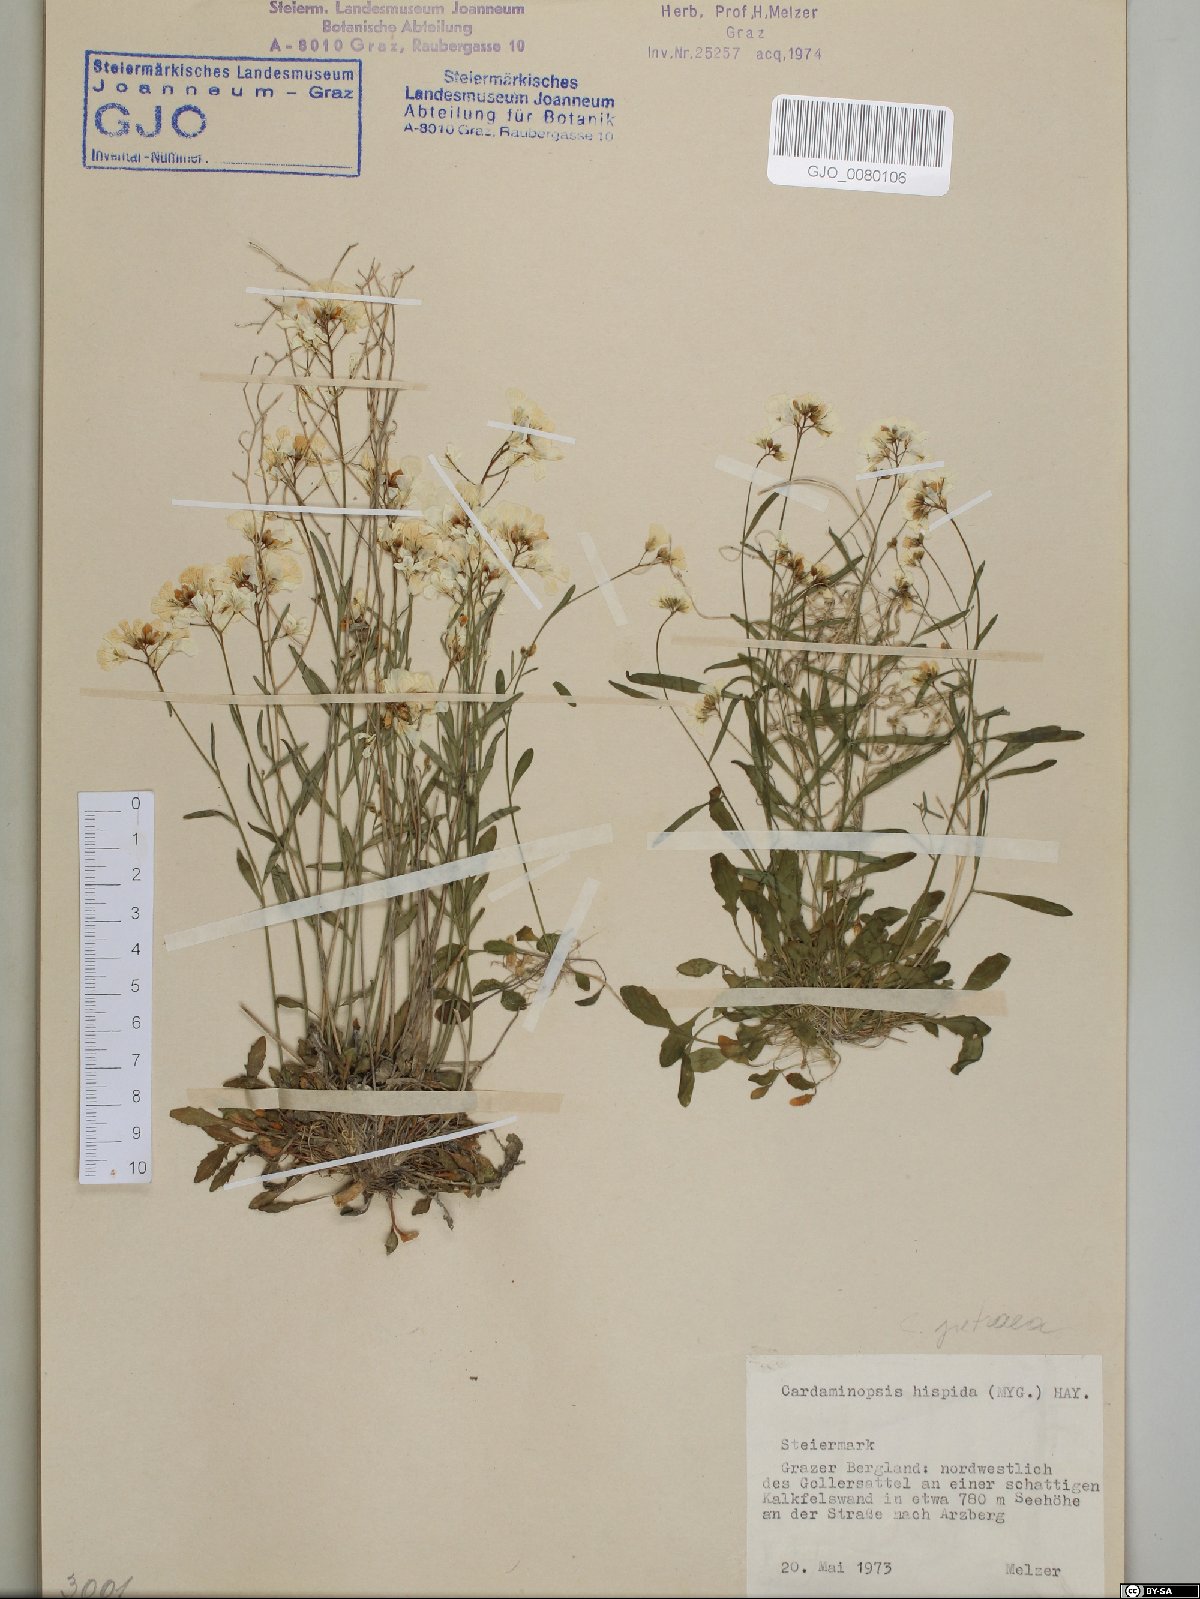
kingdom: Plantae
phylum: Tracheophyta
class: Magnoliopsida
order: Brassicales
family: Brassicaceae
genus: Arabidopsis
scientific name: Arabidopsis lyrata
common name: Lyrate rockcress
